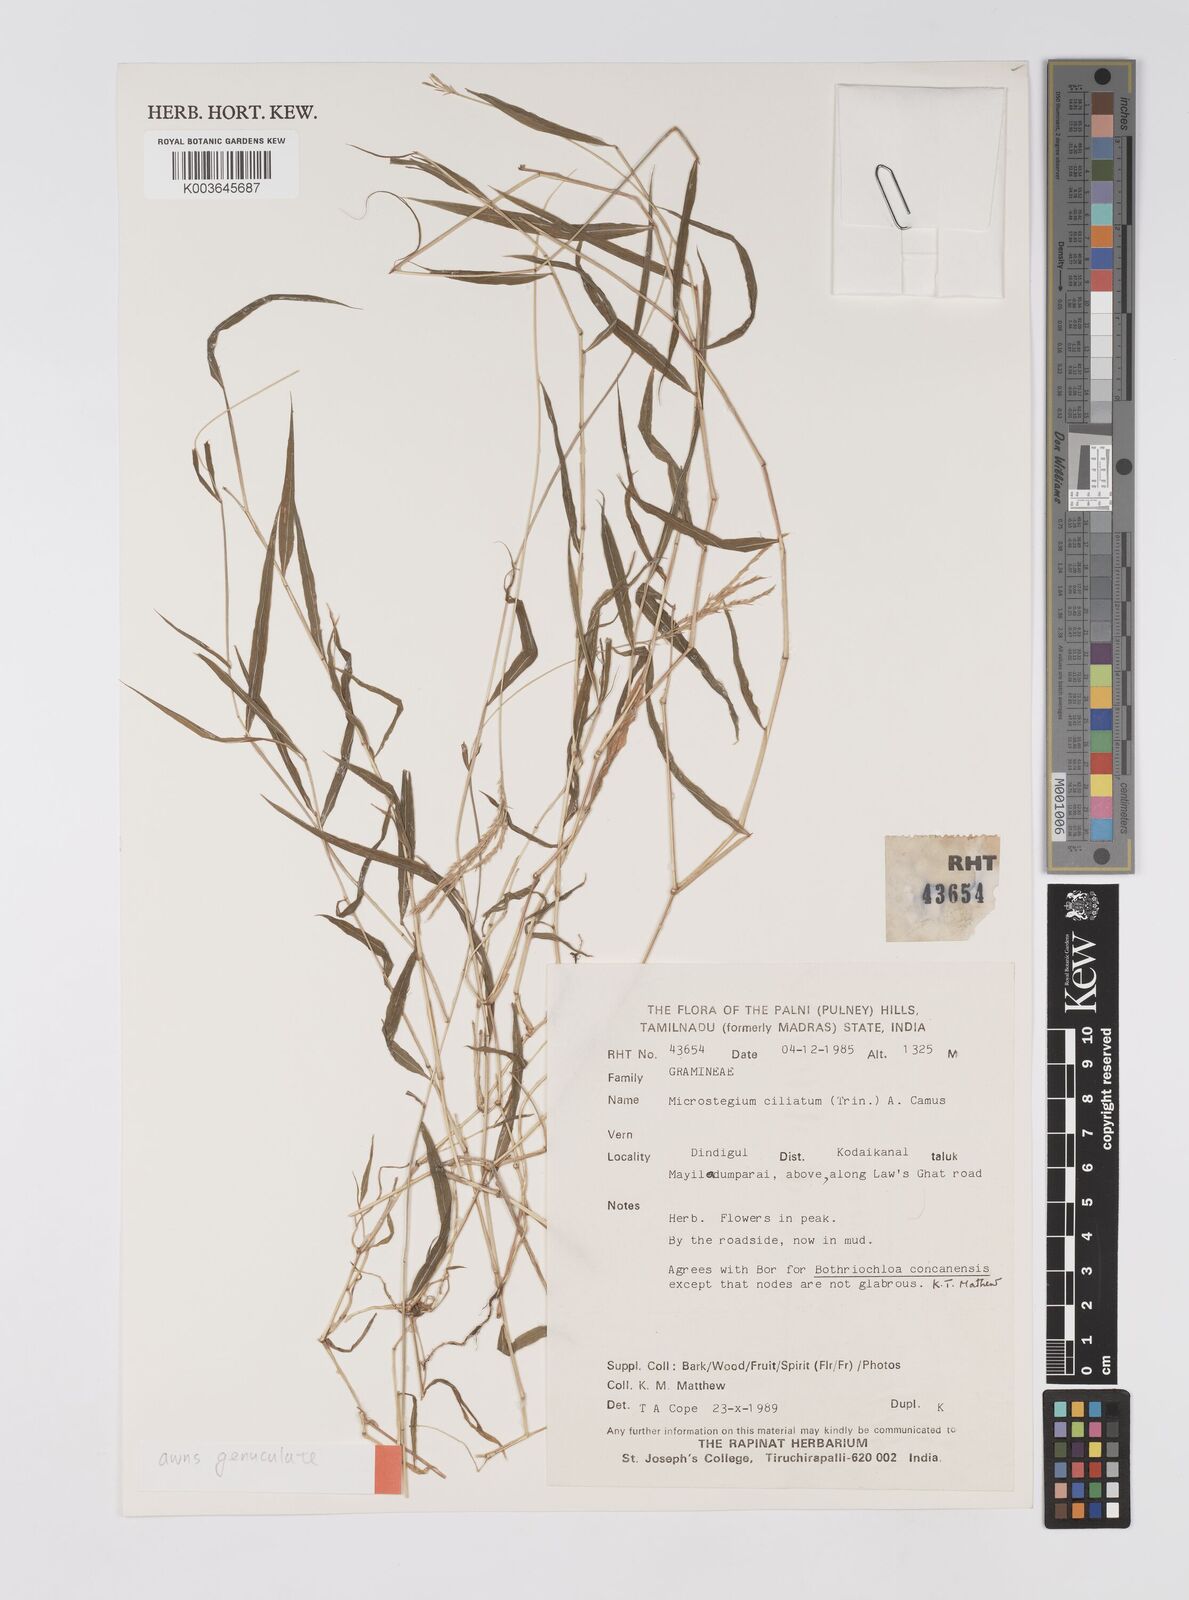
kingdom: Plantae
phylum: Tracheophyta
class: Liliopsida
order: Poales
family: Poaceae
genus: Microstegium
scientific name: Microstegium fasciculatum
